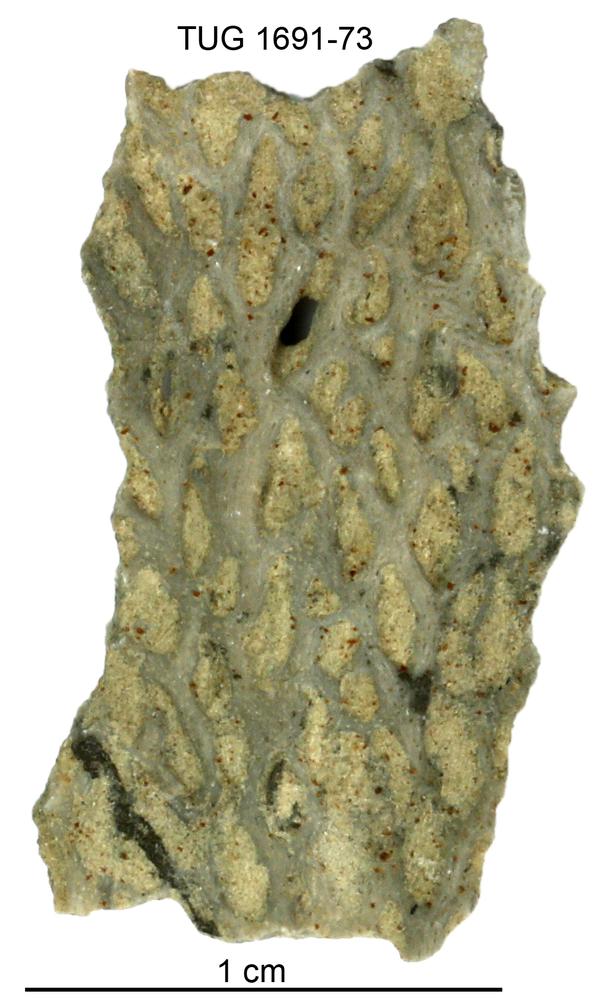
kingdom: Animalia
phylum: Bryozoa
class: Stenolaemata
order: Fenestrida
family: Phylloporinidae
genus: Aluverina
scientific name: Aluverina multiporata
